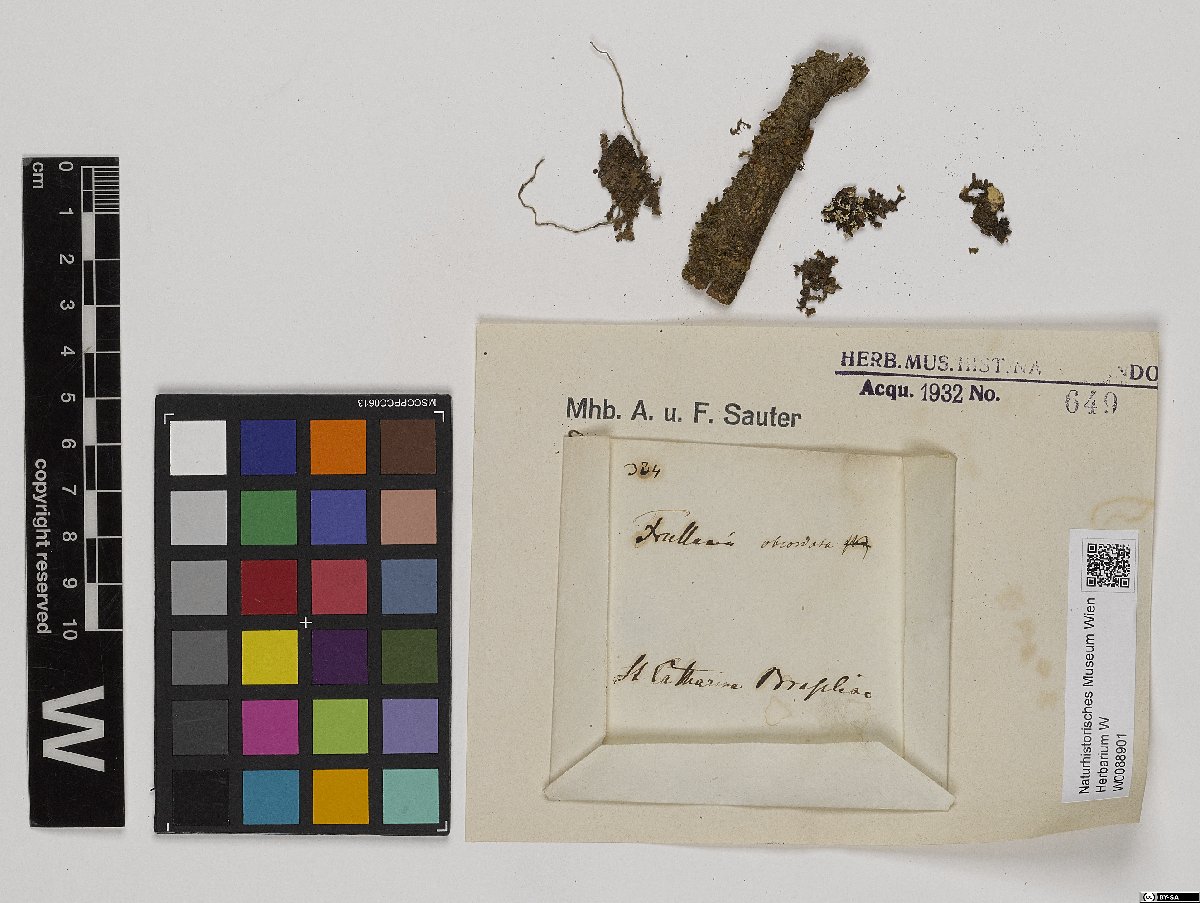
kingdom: Plantae
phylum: Marchantiophyta
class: Jungermanniopsida
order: Porellales
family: Frullaniaceae
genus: Frullania
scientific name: Frullania obcordata
